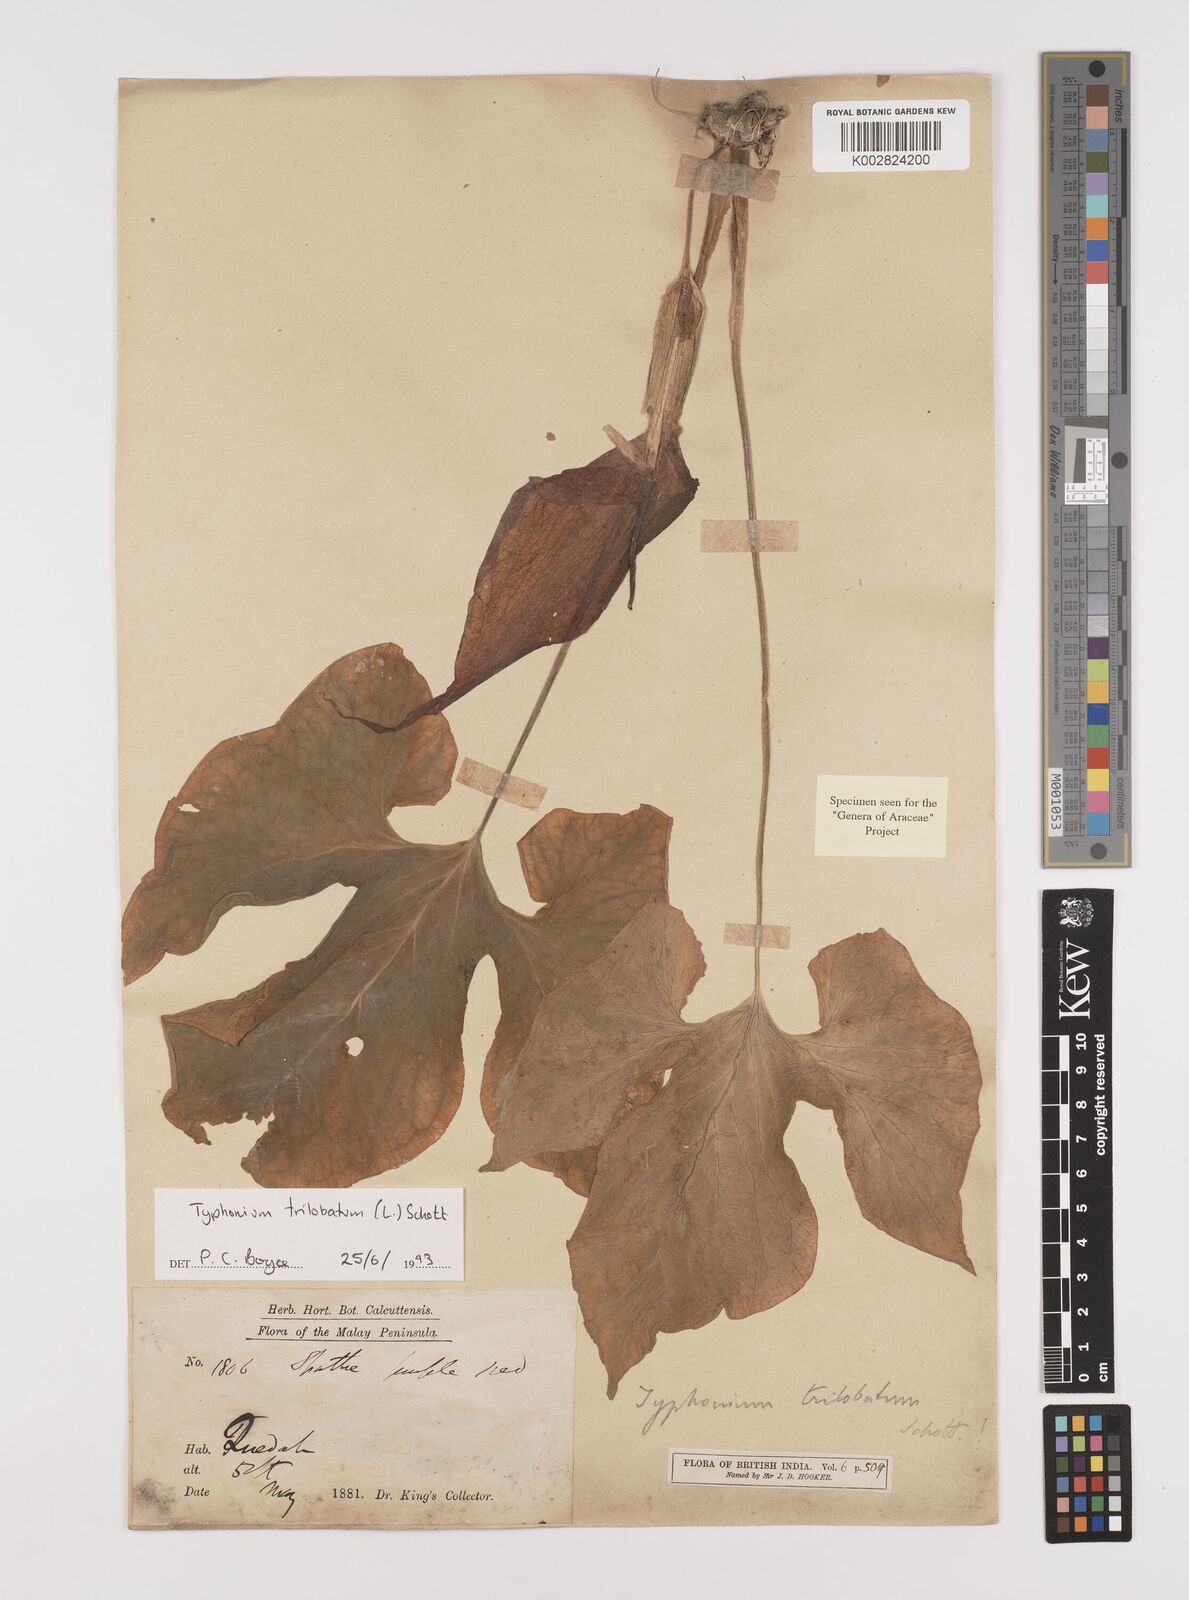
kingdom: Plantae
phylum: Tracheophyta
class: Liliopsida
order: Alismatales
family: Araceae
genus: Typhonium
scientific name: Typhonium trilobatum
